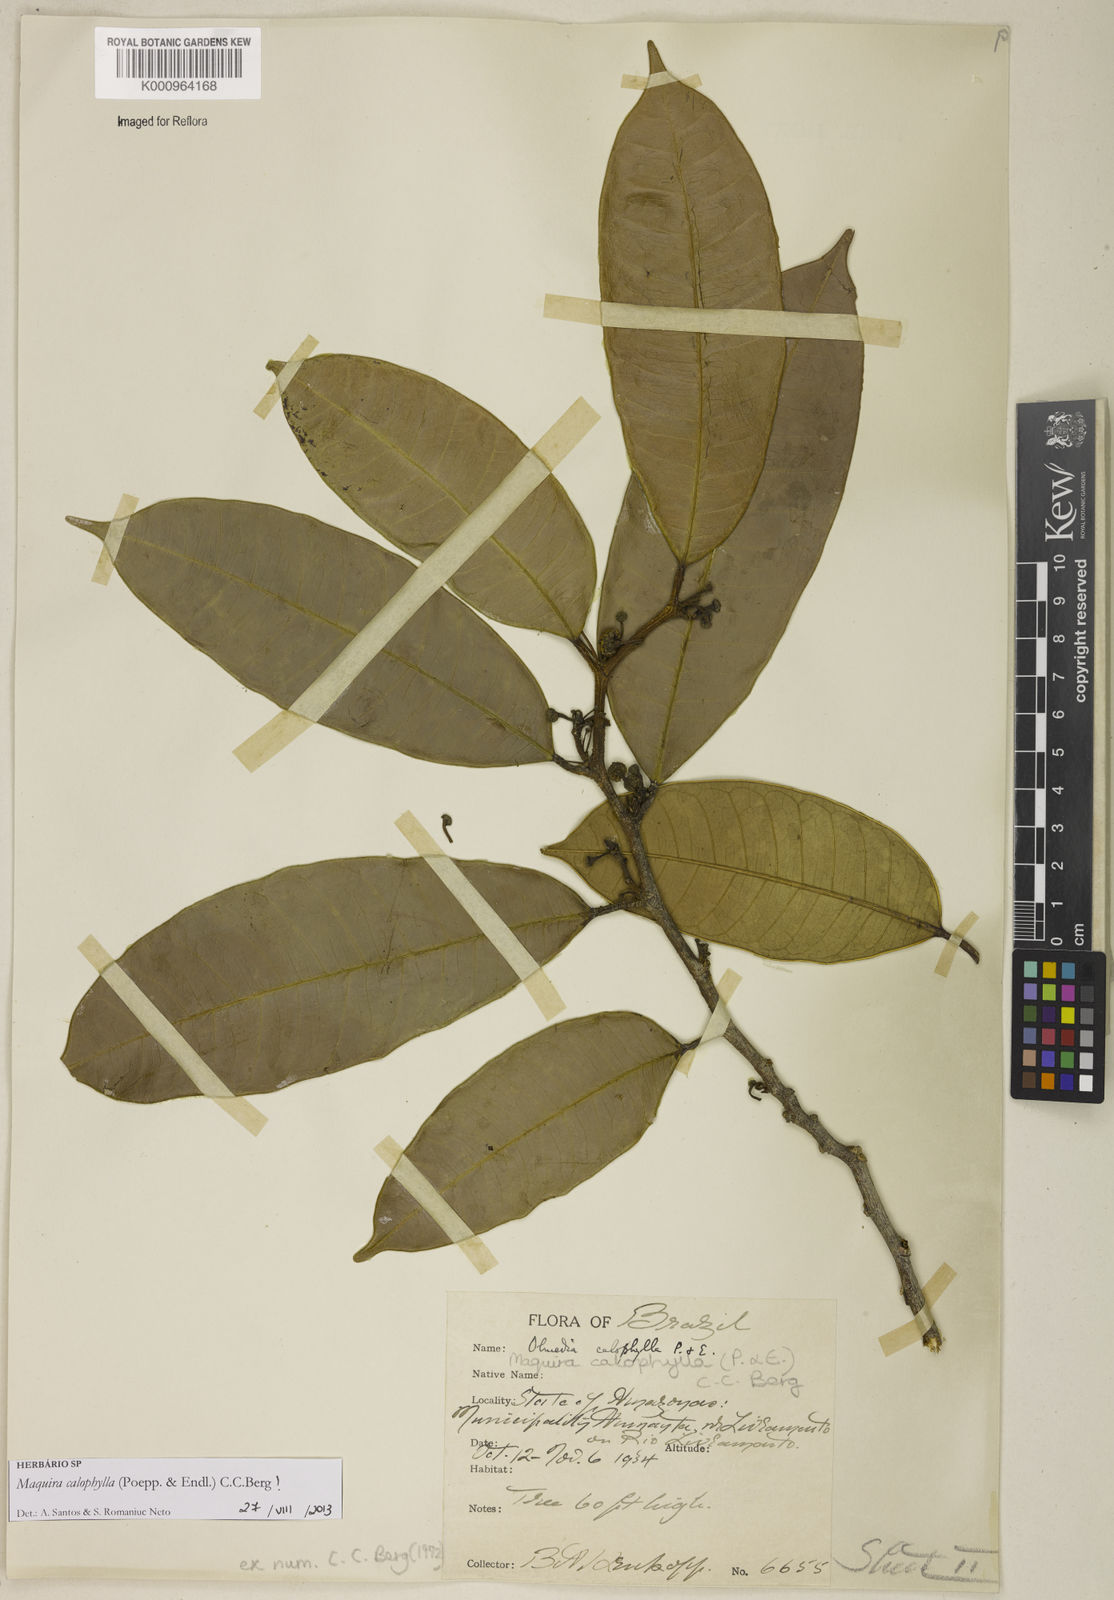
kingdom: Plantae
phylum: Tracheophyta
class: Magnoliopsida
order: Rosales
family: Moraceae
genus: Maquira
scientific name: Maquira calophylla
